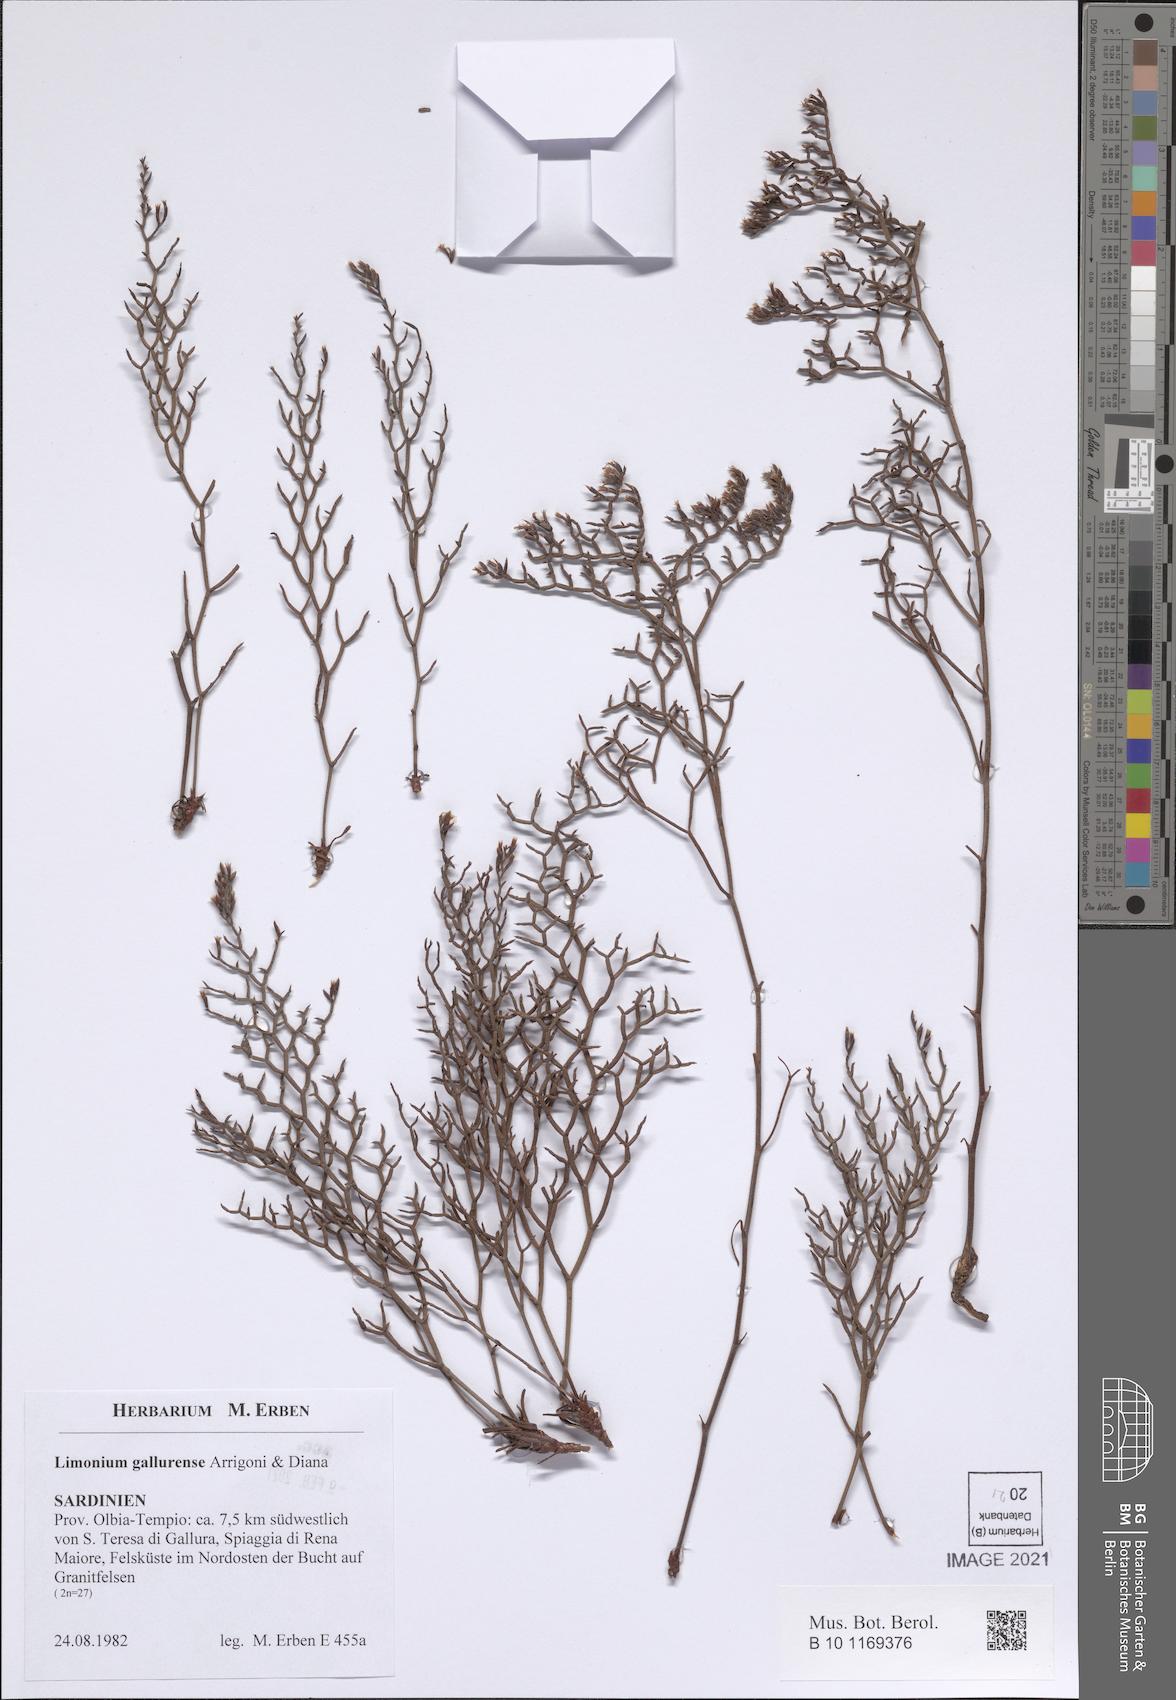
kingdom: Plantae
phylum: Tracheophyta
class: Magnoliopsida
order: Caryophyllales
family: Plumbaginaceae
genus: Limonium
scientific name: Limonium gallurense
